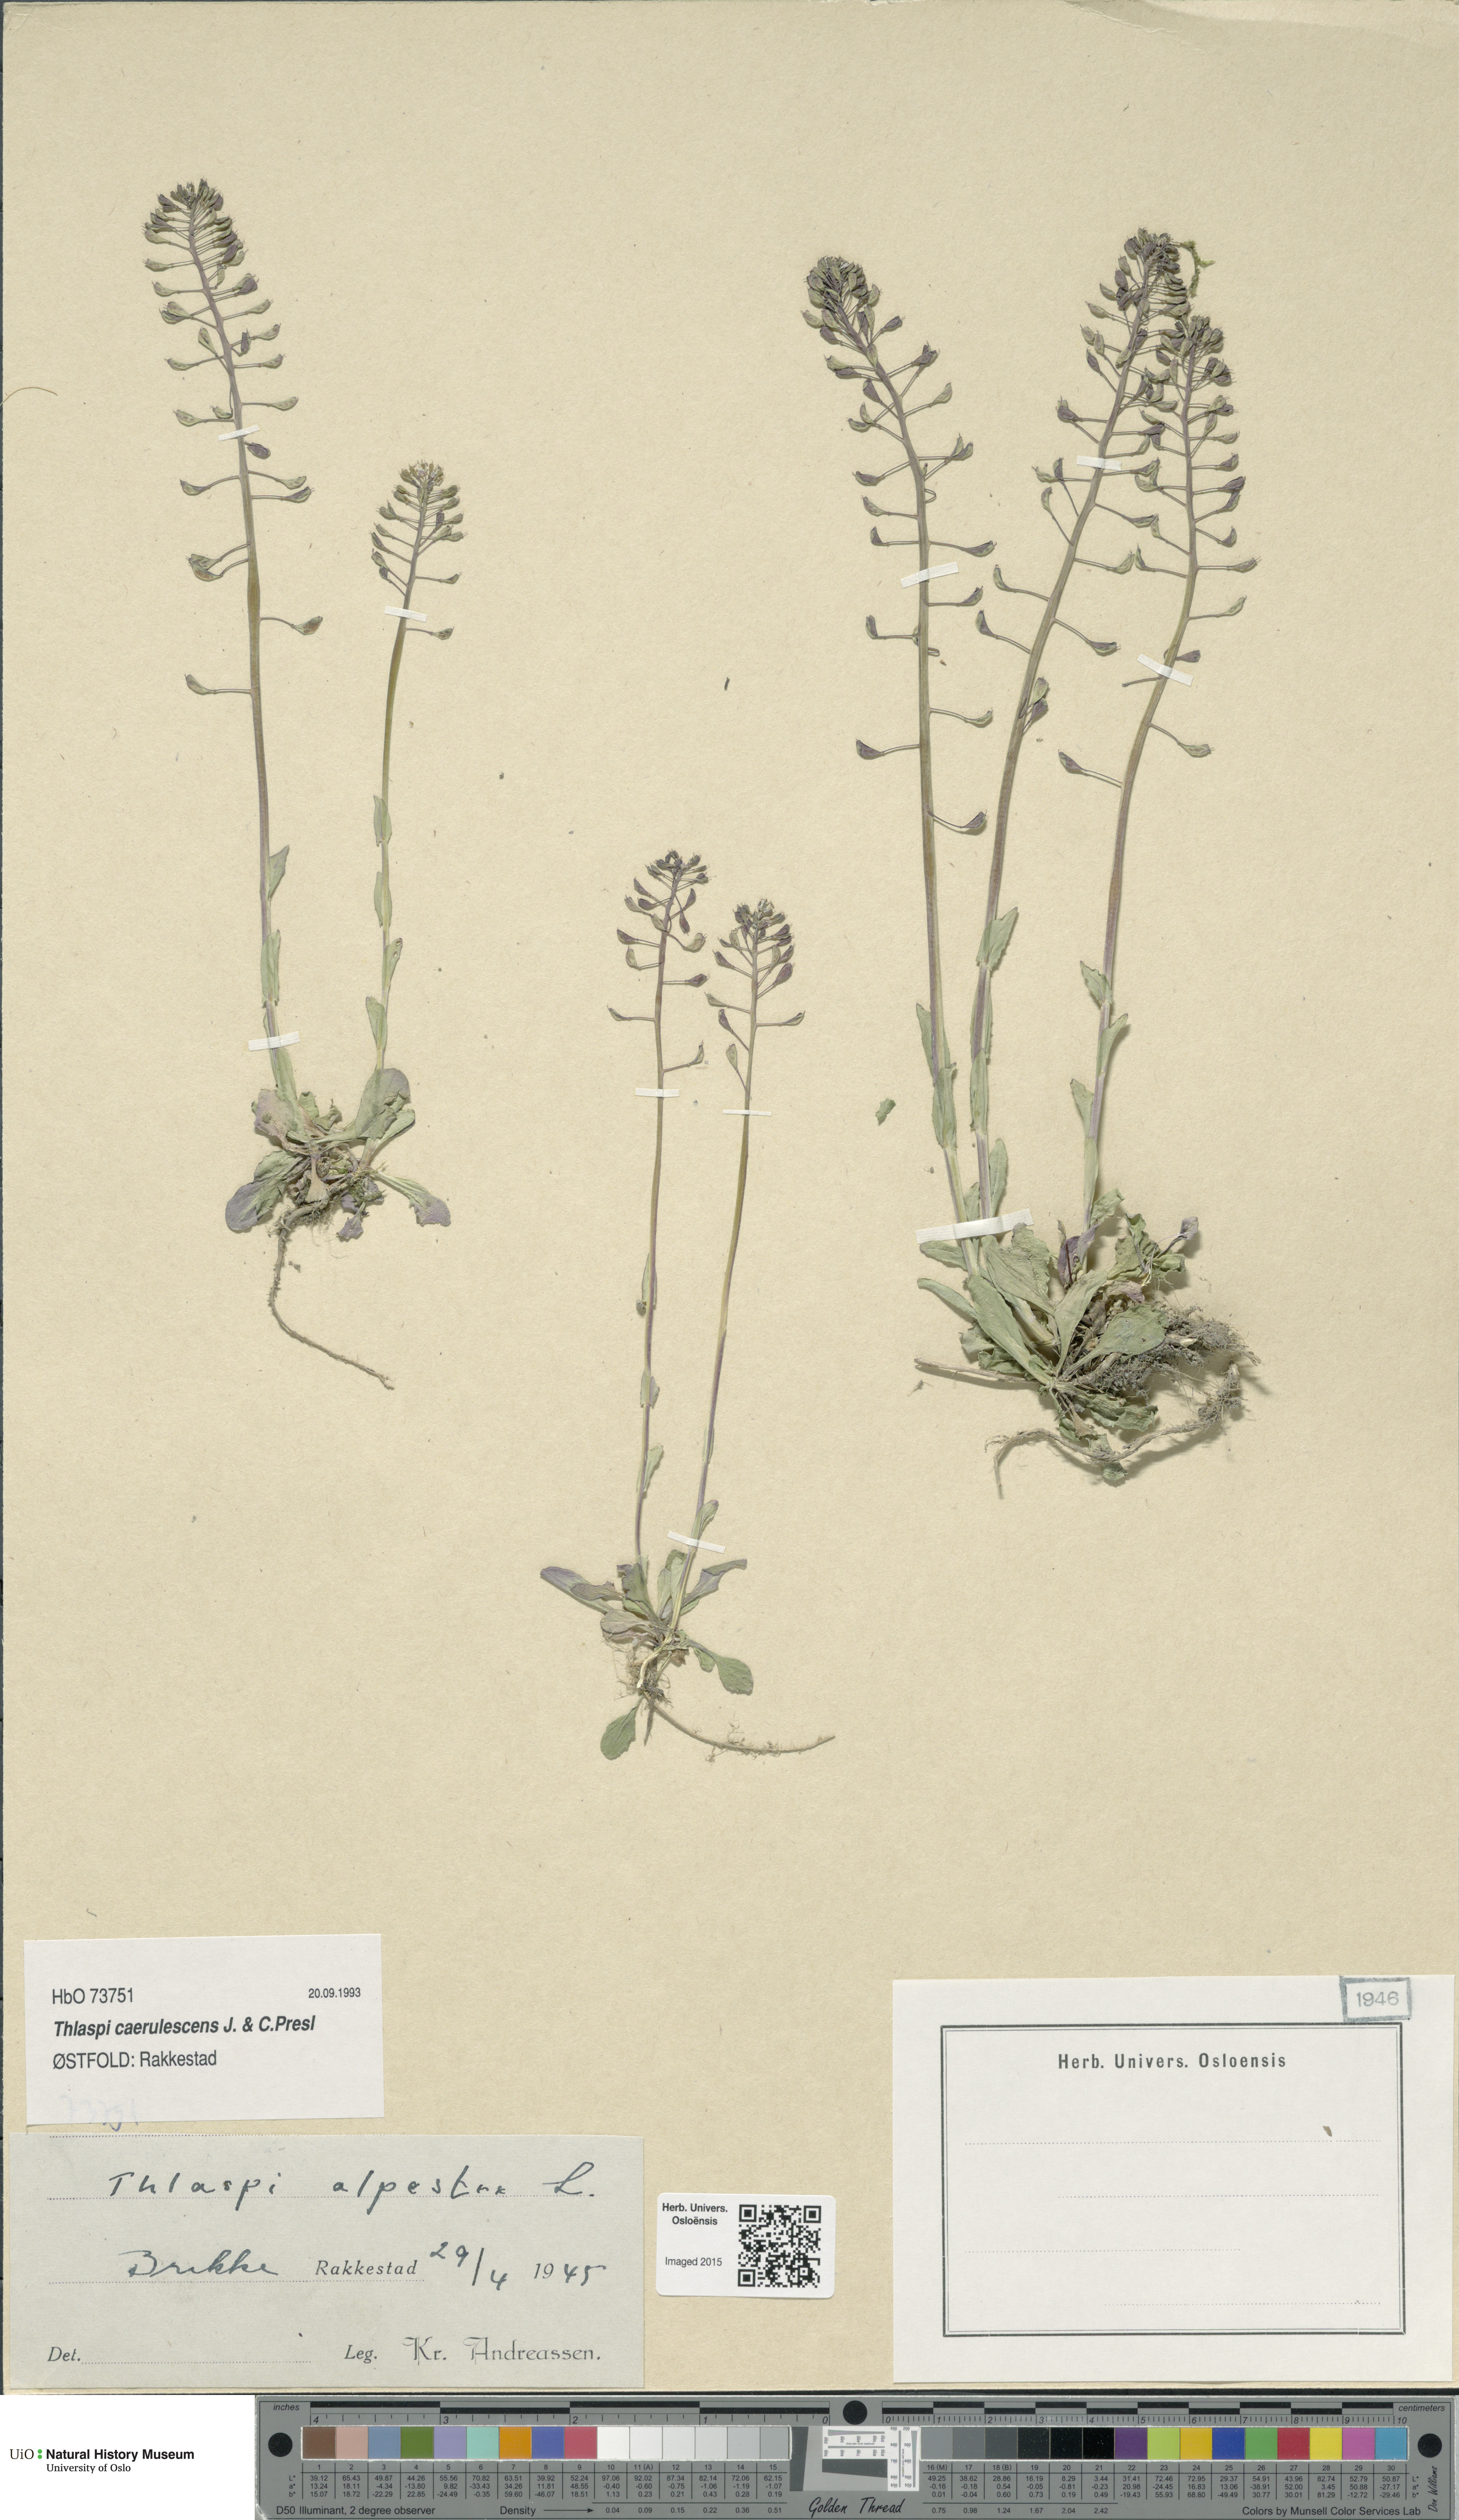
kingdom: Plantae
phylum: Tracheophyta
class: Magnoliopsida
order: Brassicales
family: Brassicaceae
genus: Noccaea
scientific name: Noccaea caerulescens
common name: Alpine pennycress
